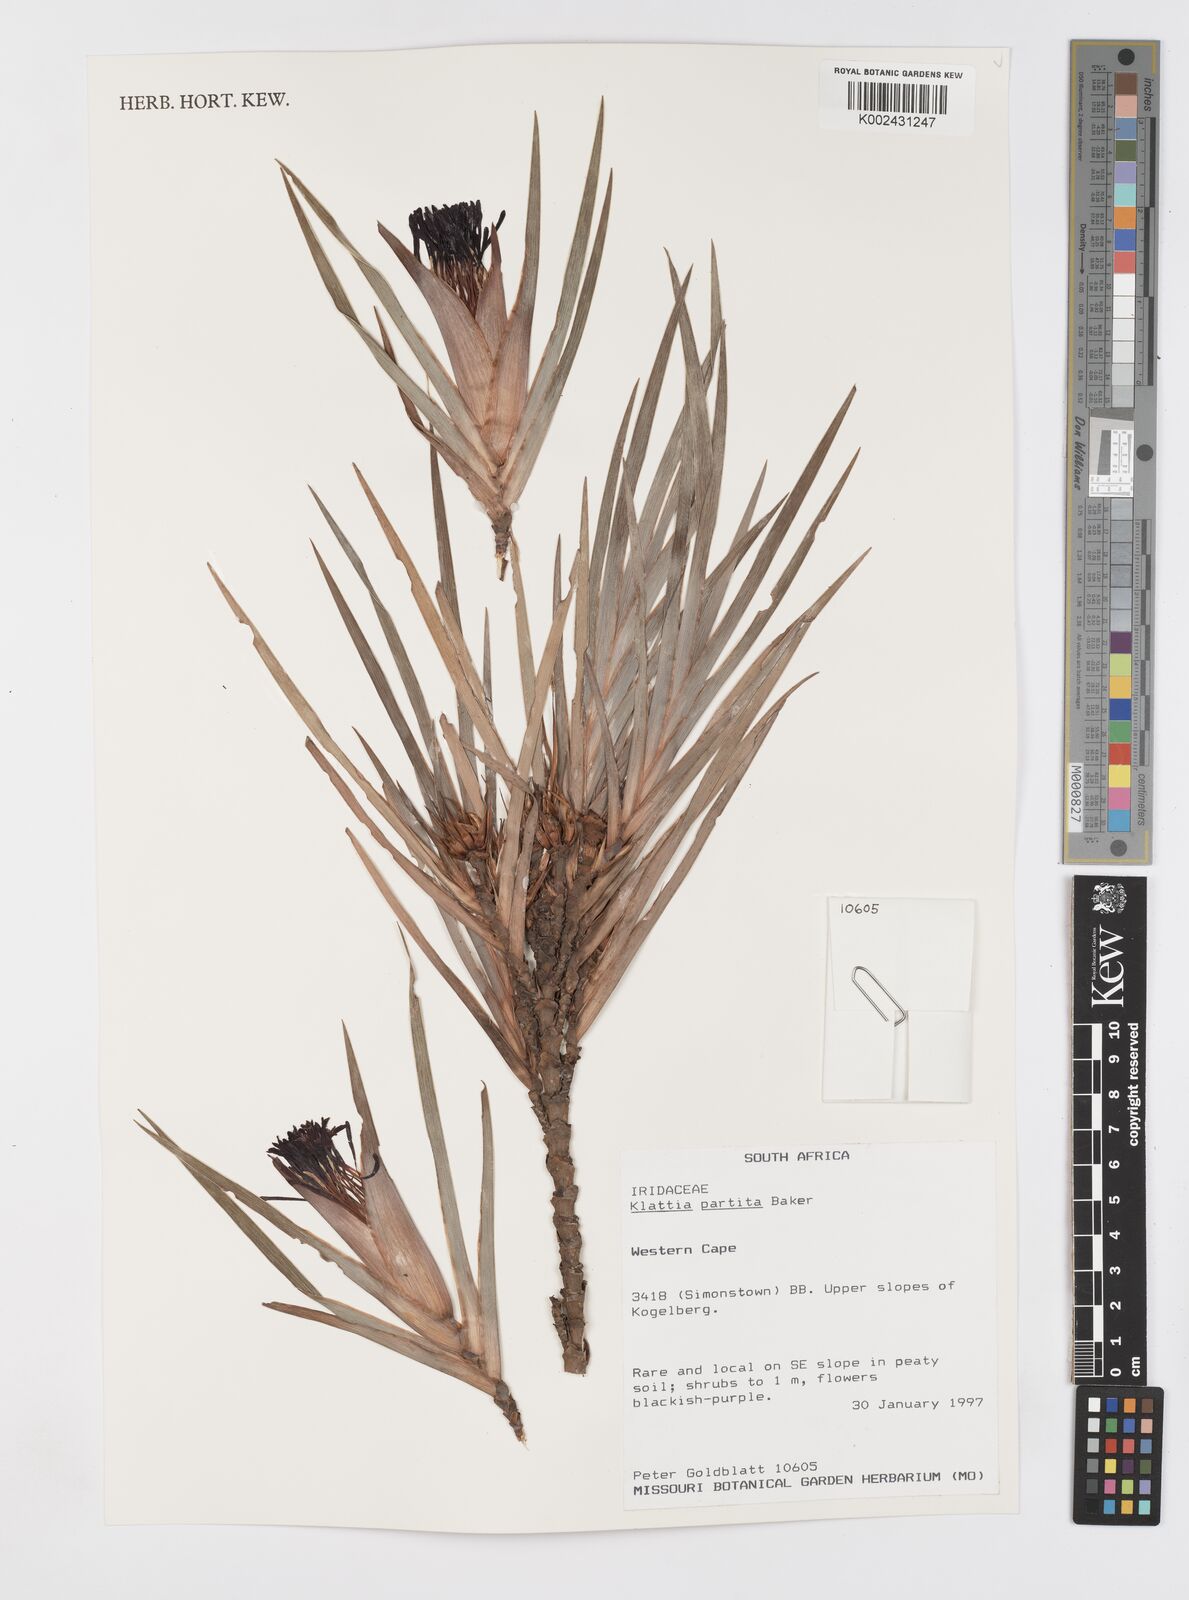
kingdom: Plantae
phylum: Tracheophyta
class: Liliopsida
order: Asparagales
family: Iridaceae
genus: Klattia
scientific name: Klattia partita
